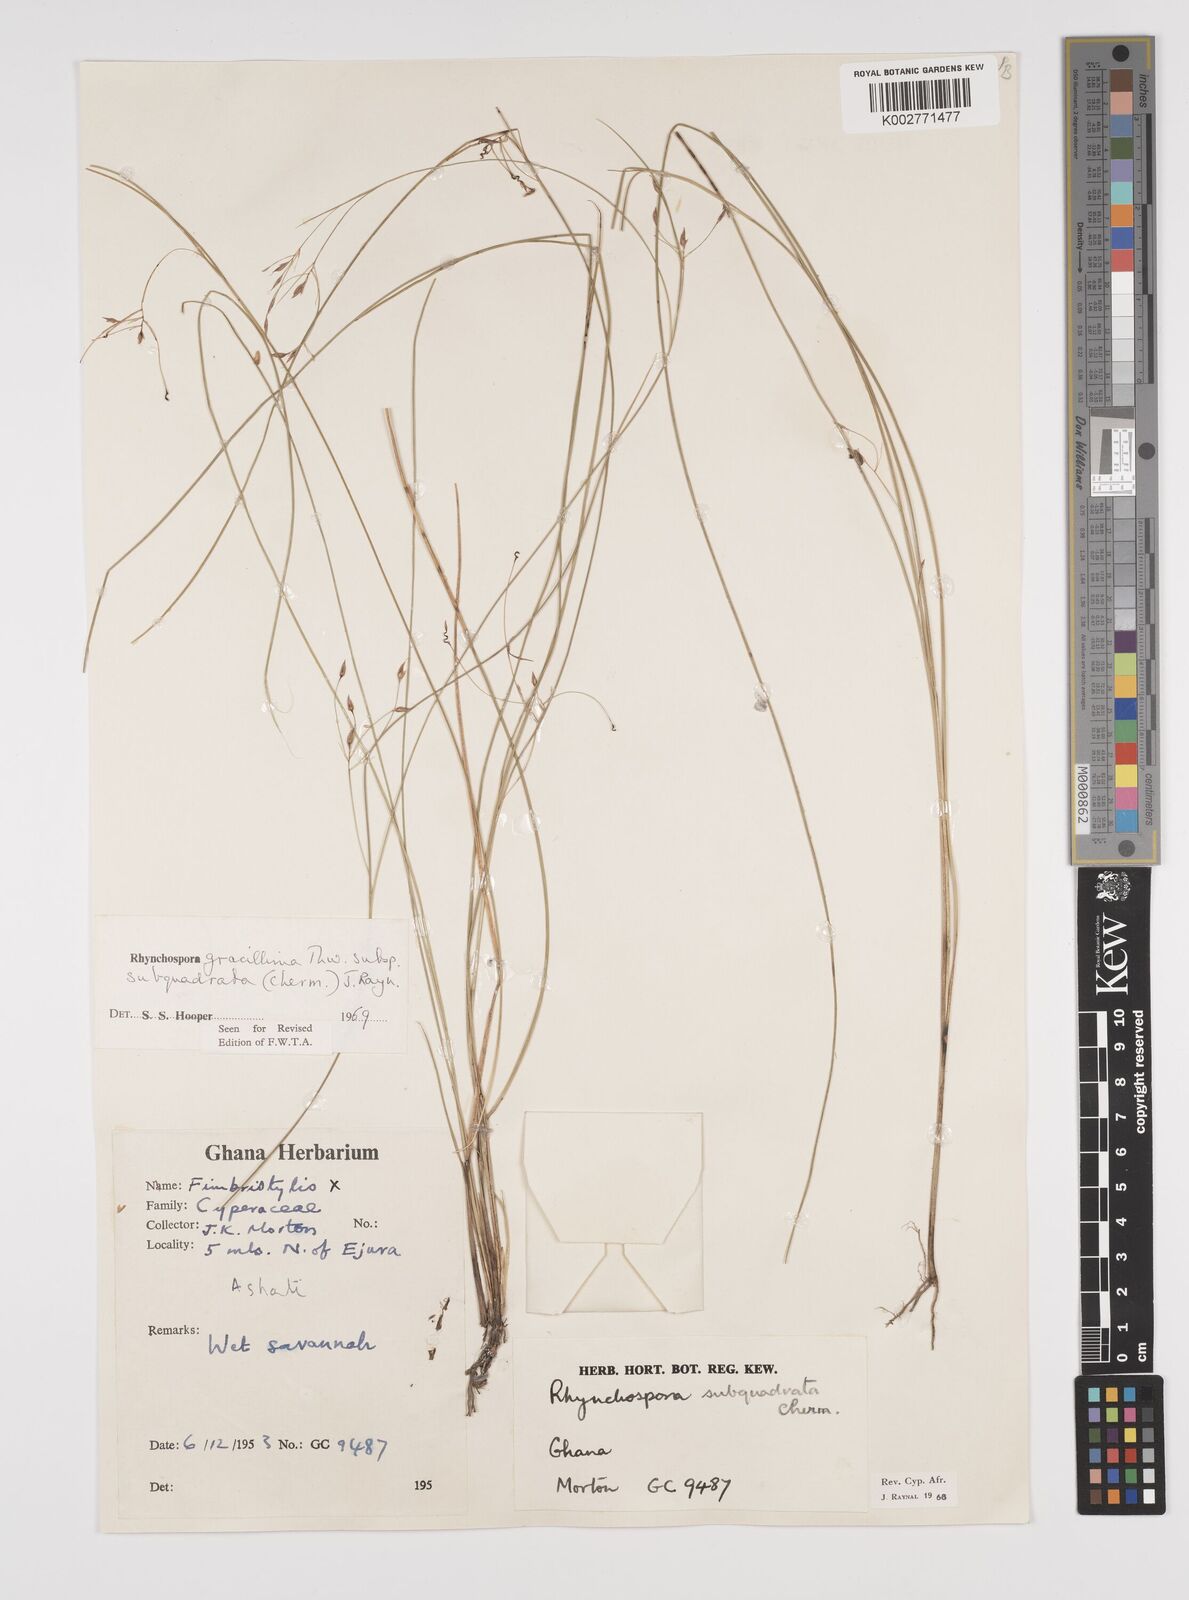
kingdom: Plantae
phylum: Tracheophyta
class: Liliopsida
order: Poales
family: Cyperaceae
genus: Rhynchospora
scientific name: Rhynchospora gracillima
